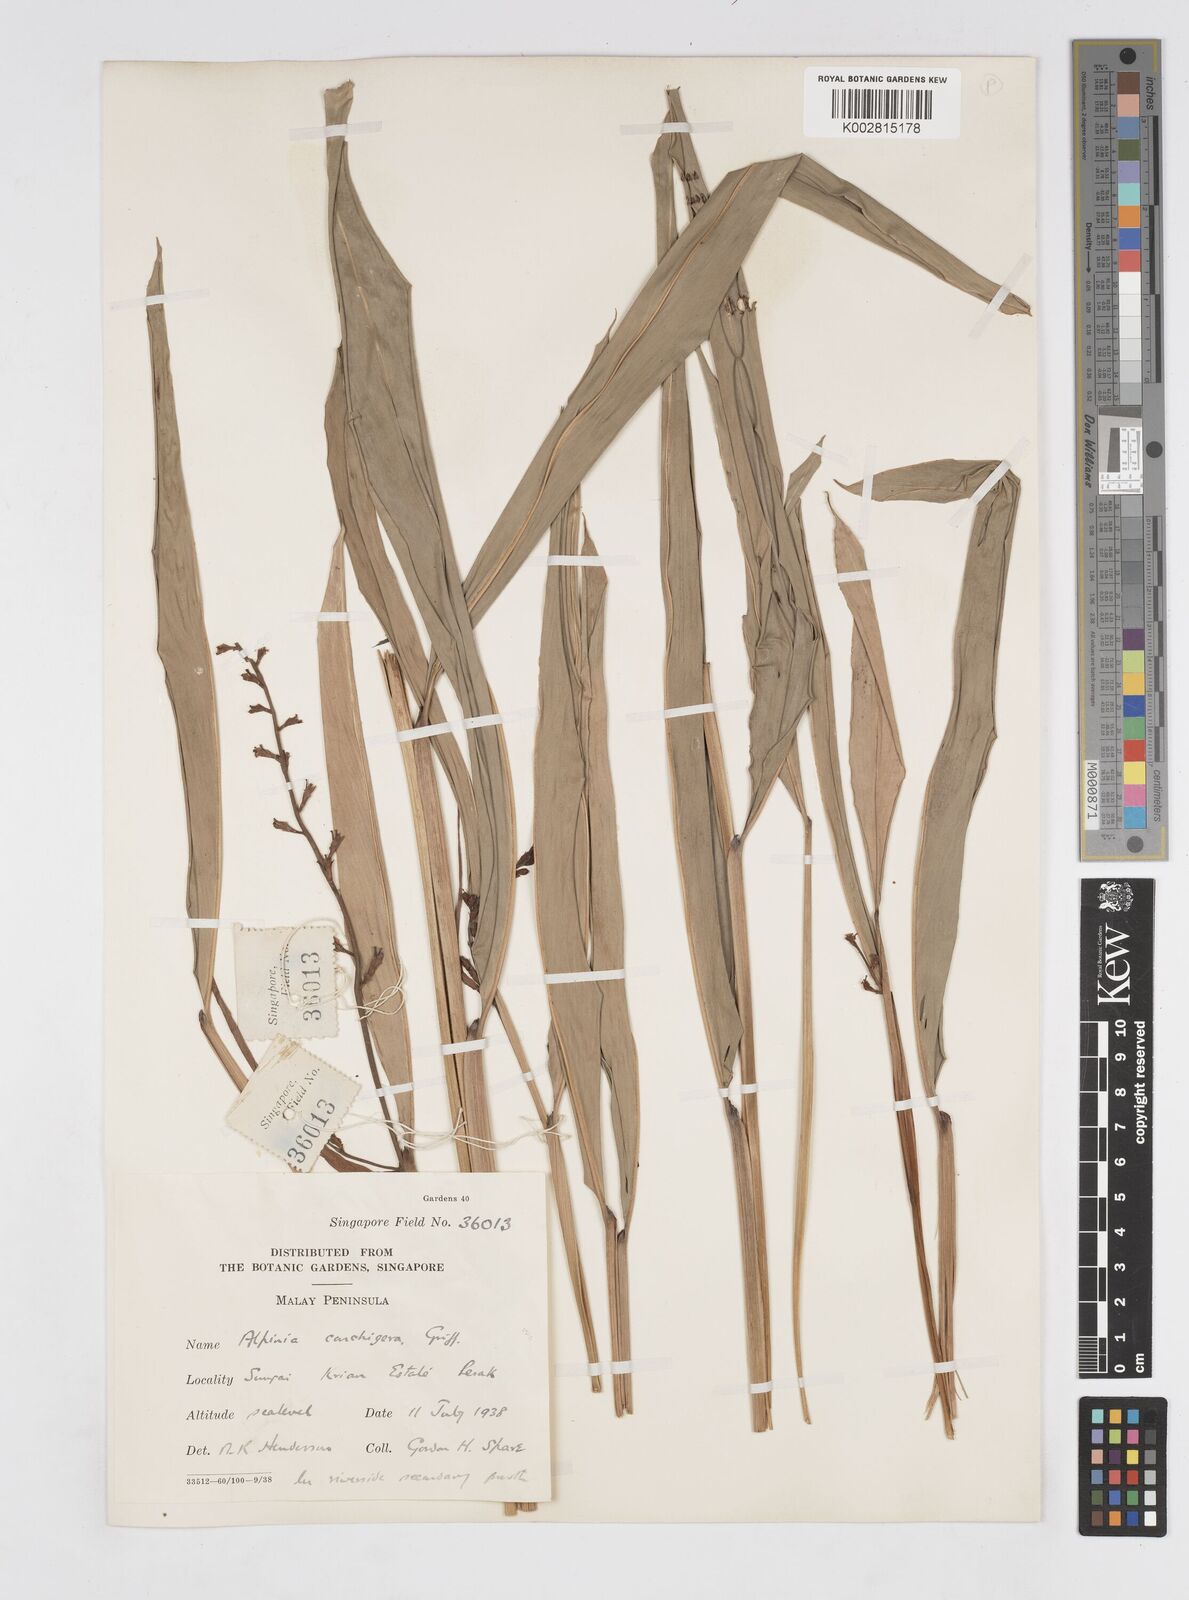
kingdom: Plantae
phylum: Tracheophyta
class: Liliopsida
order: Zingiberales
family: Zingiberaceae
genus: Alpinia
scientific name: Alpinia conchigera
